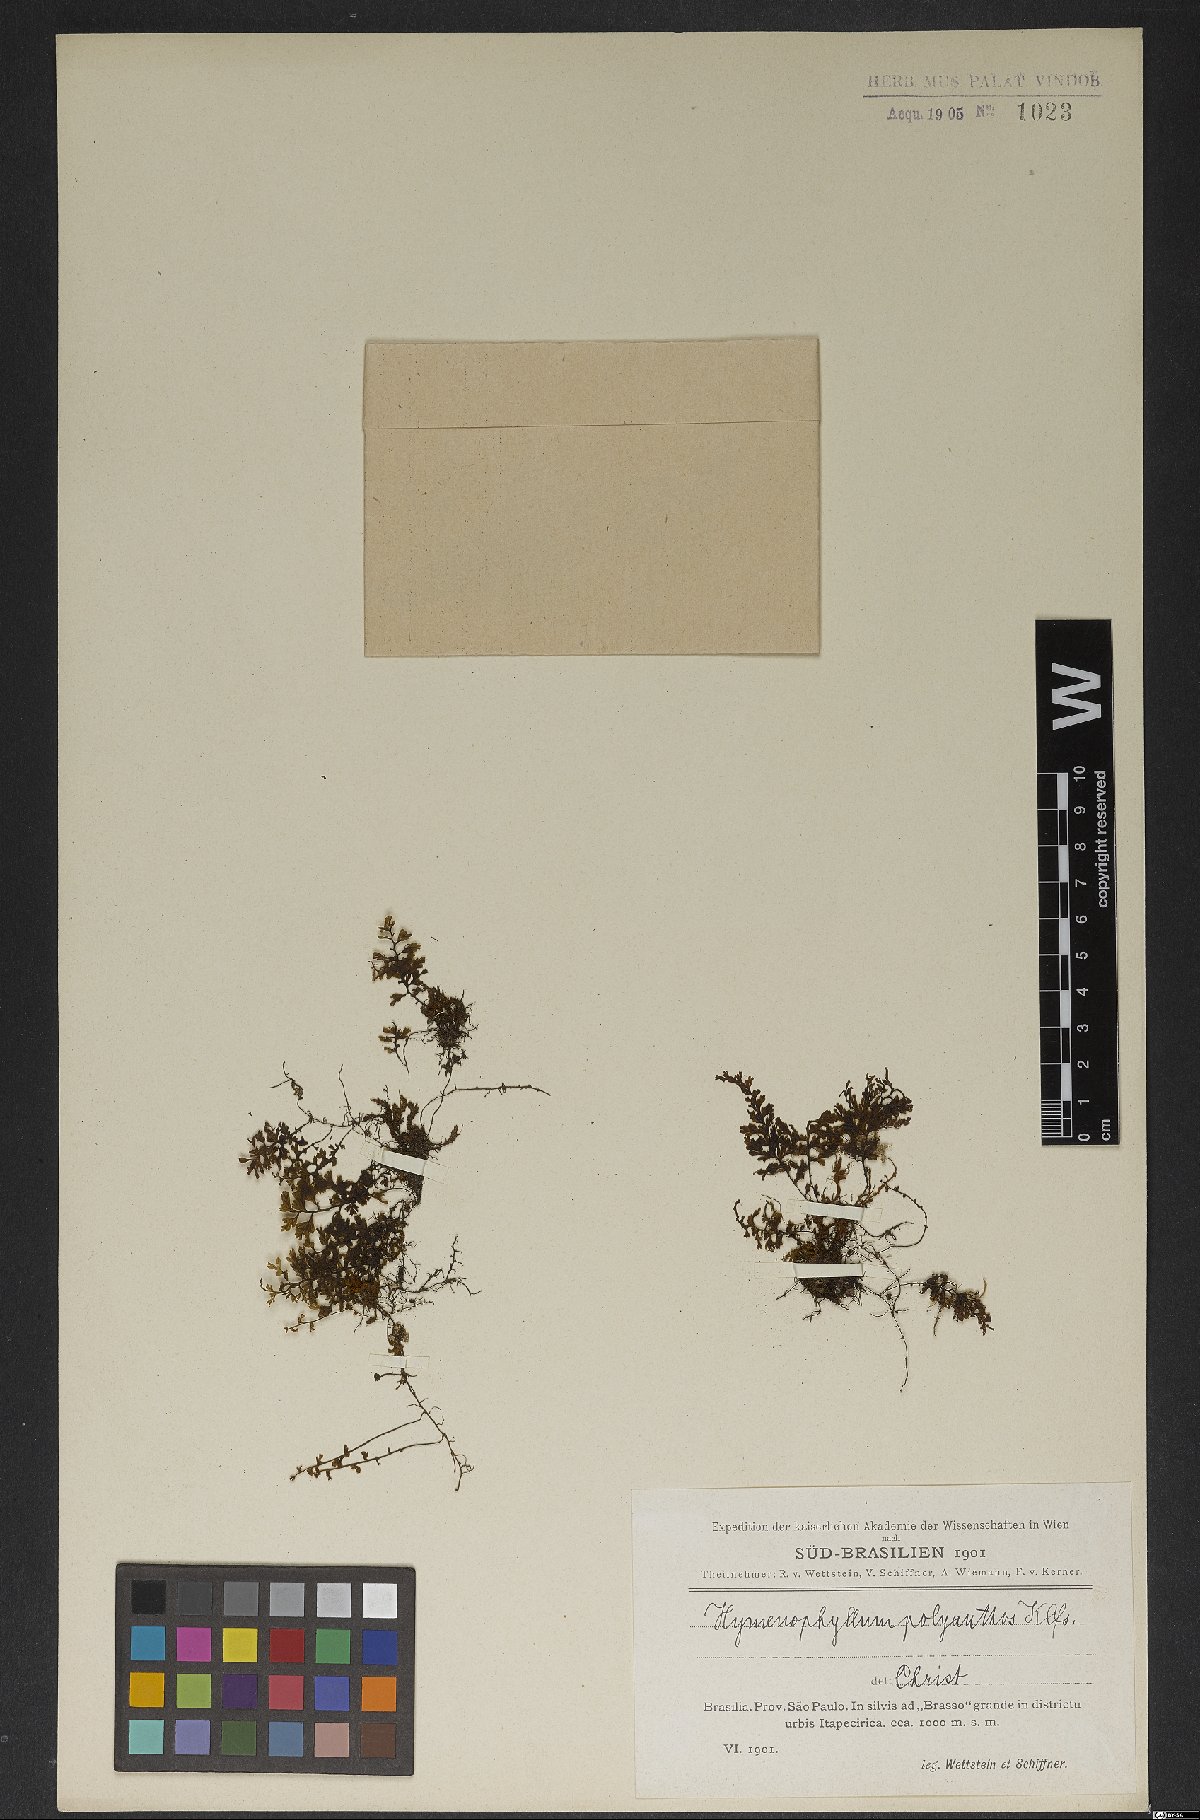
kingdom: Plantae
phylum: Tracheophyta
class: Polypodiopsida
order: Hymenophyllales
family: Hymenophyllaceae
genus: Hymenophyllum
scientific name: Hymenophyllum polyanthos
